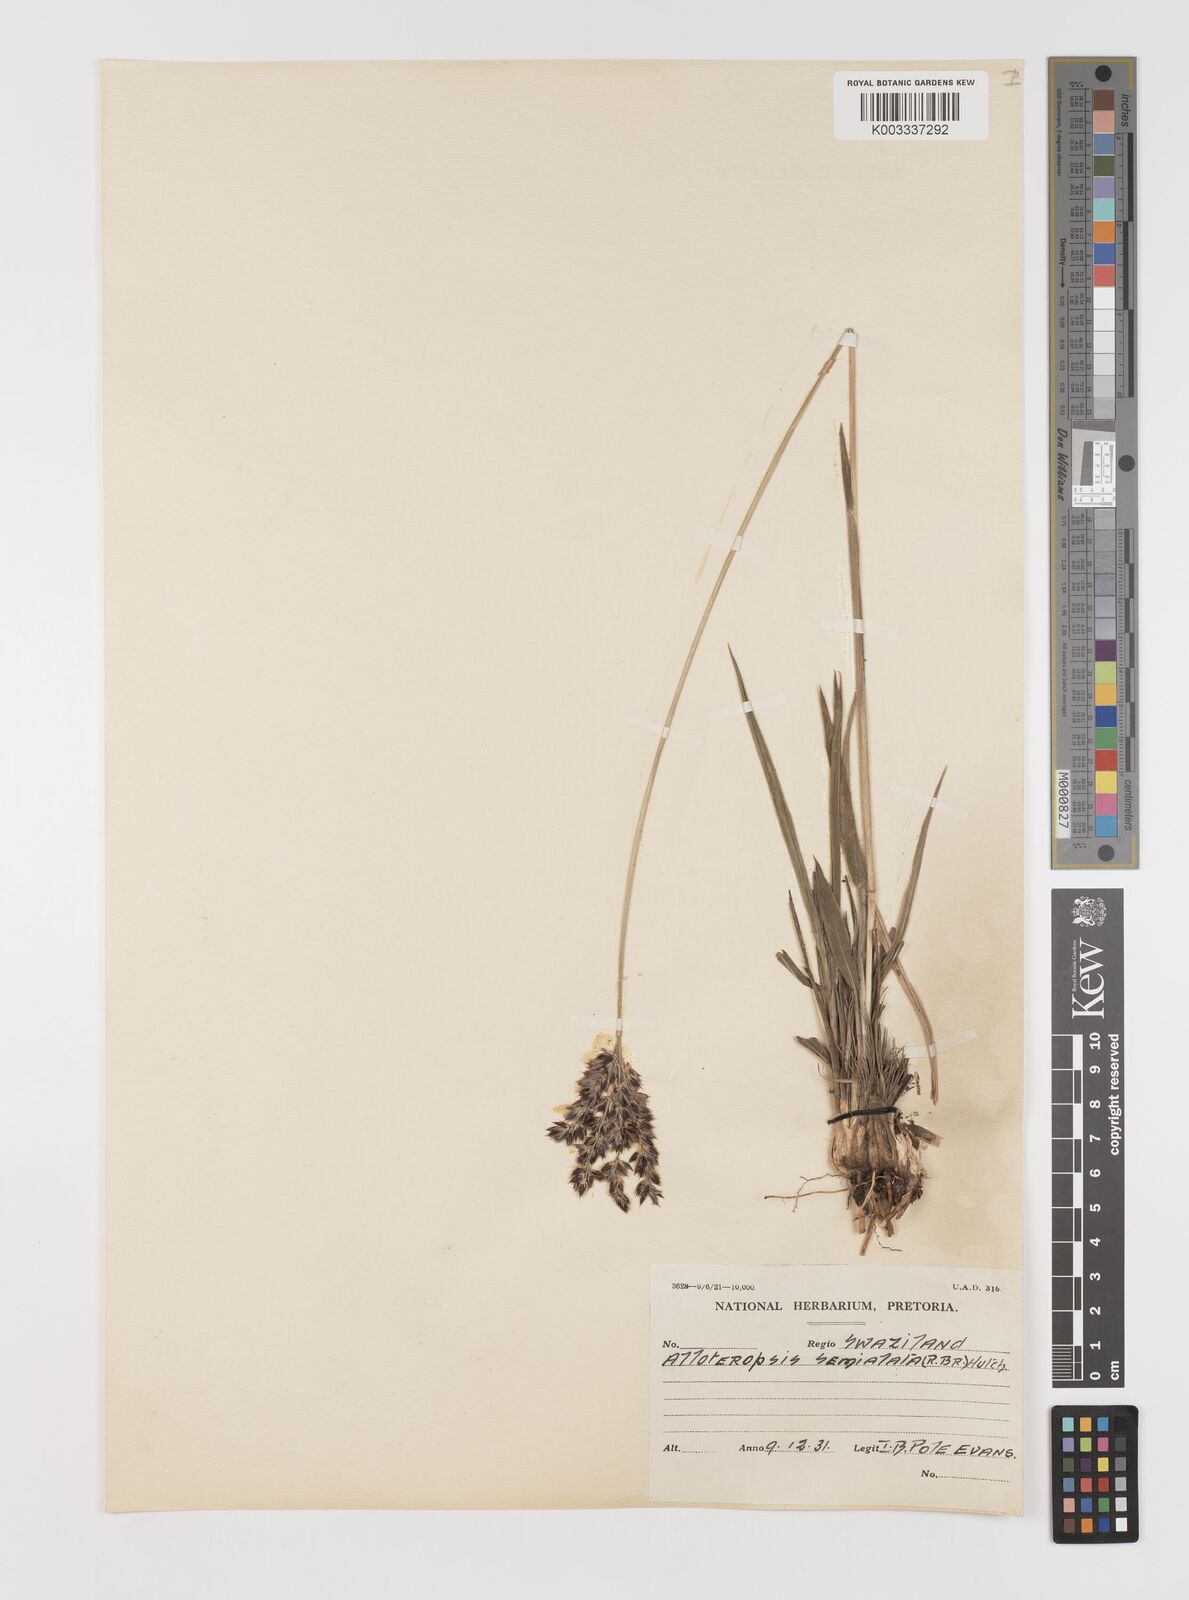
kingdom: Plantae
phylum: Tracheophyta
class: Liliopsida
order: Poales
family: Poaceae
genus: Alloteropsis
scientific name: Alloteropsis semialata
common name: Cockatoo grass
